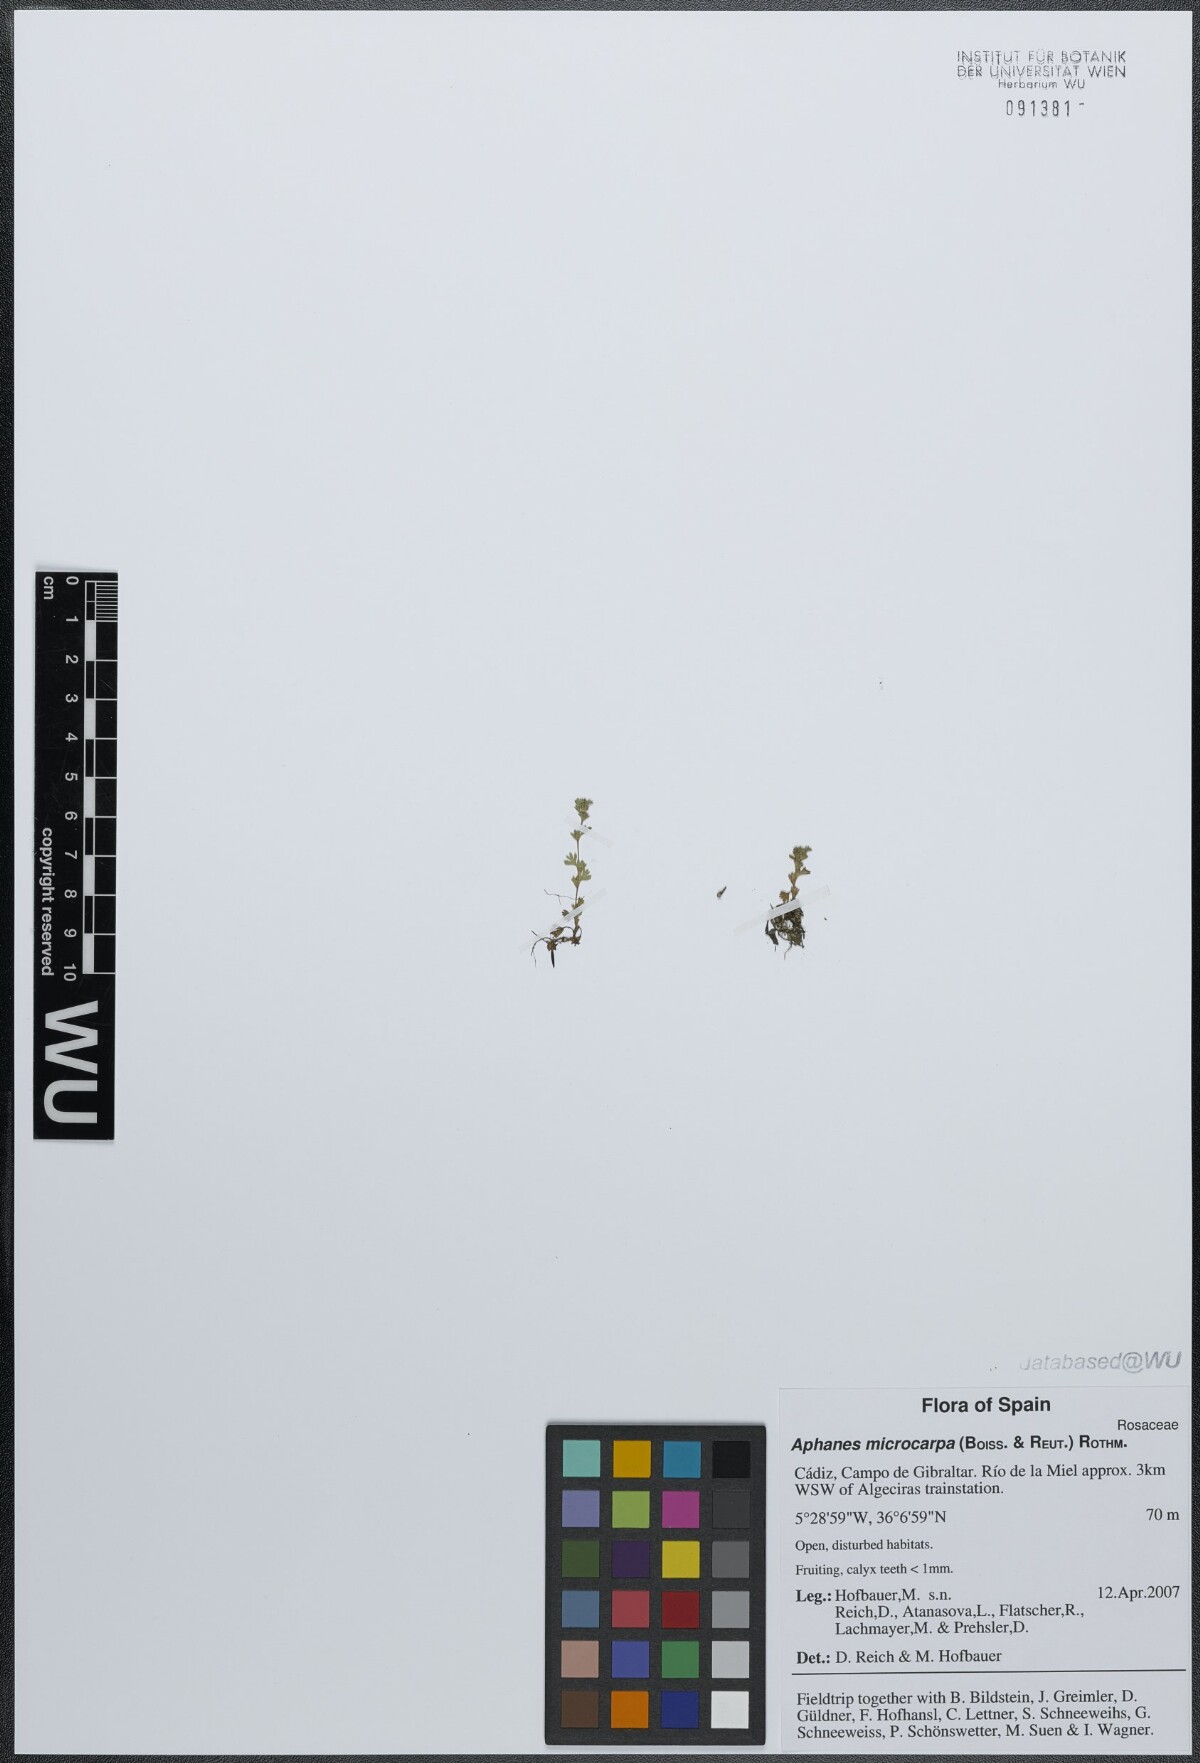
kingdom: Plantae
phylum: Tracheophyta
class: Magnoliopsida
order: Rosales
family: Rosaceae
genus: Aphanes
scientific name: Aphanes microcarpa
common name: Slender parsley piert
